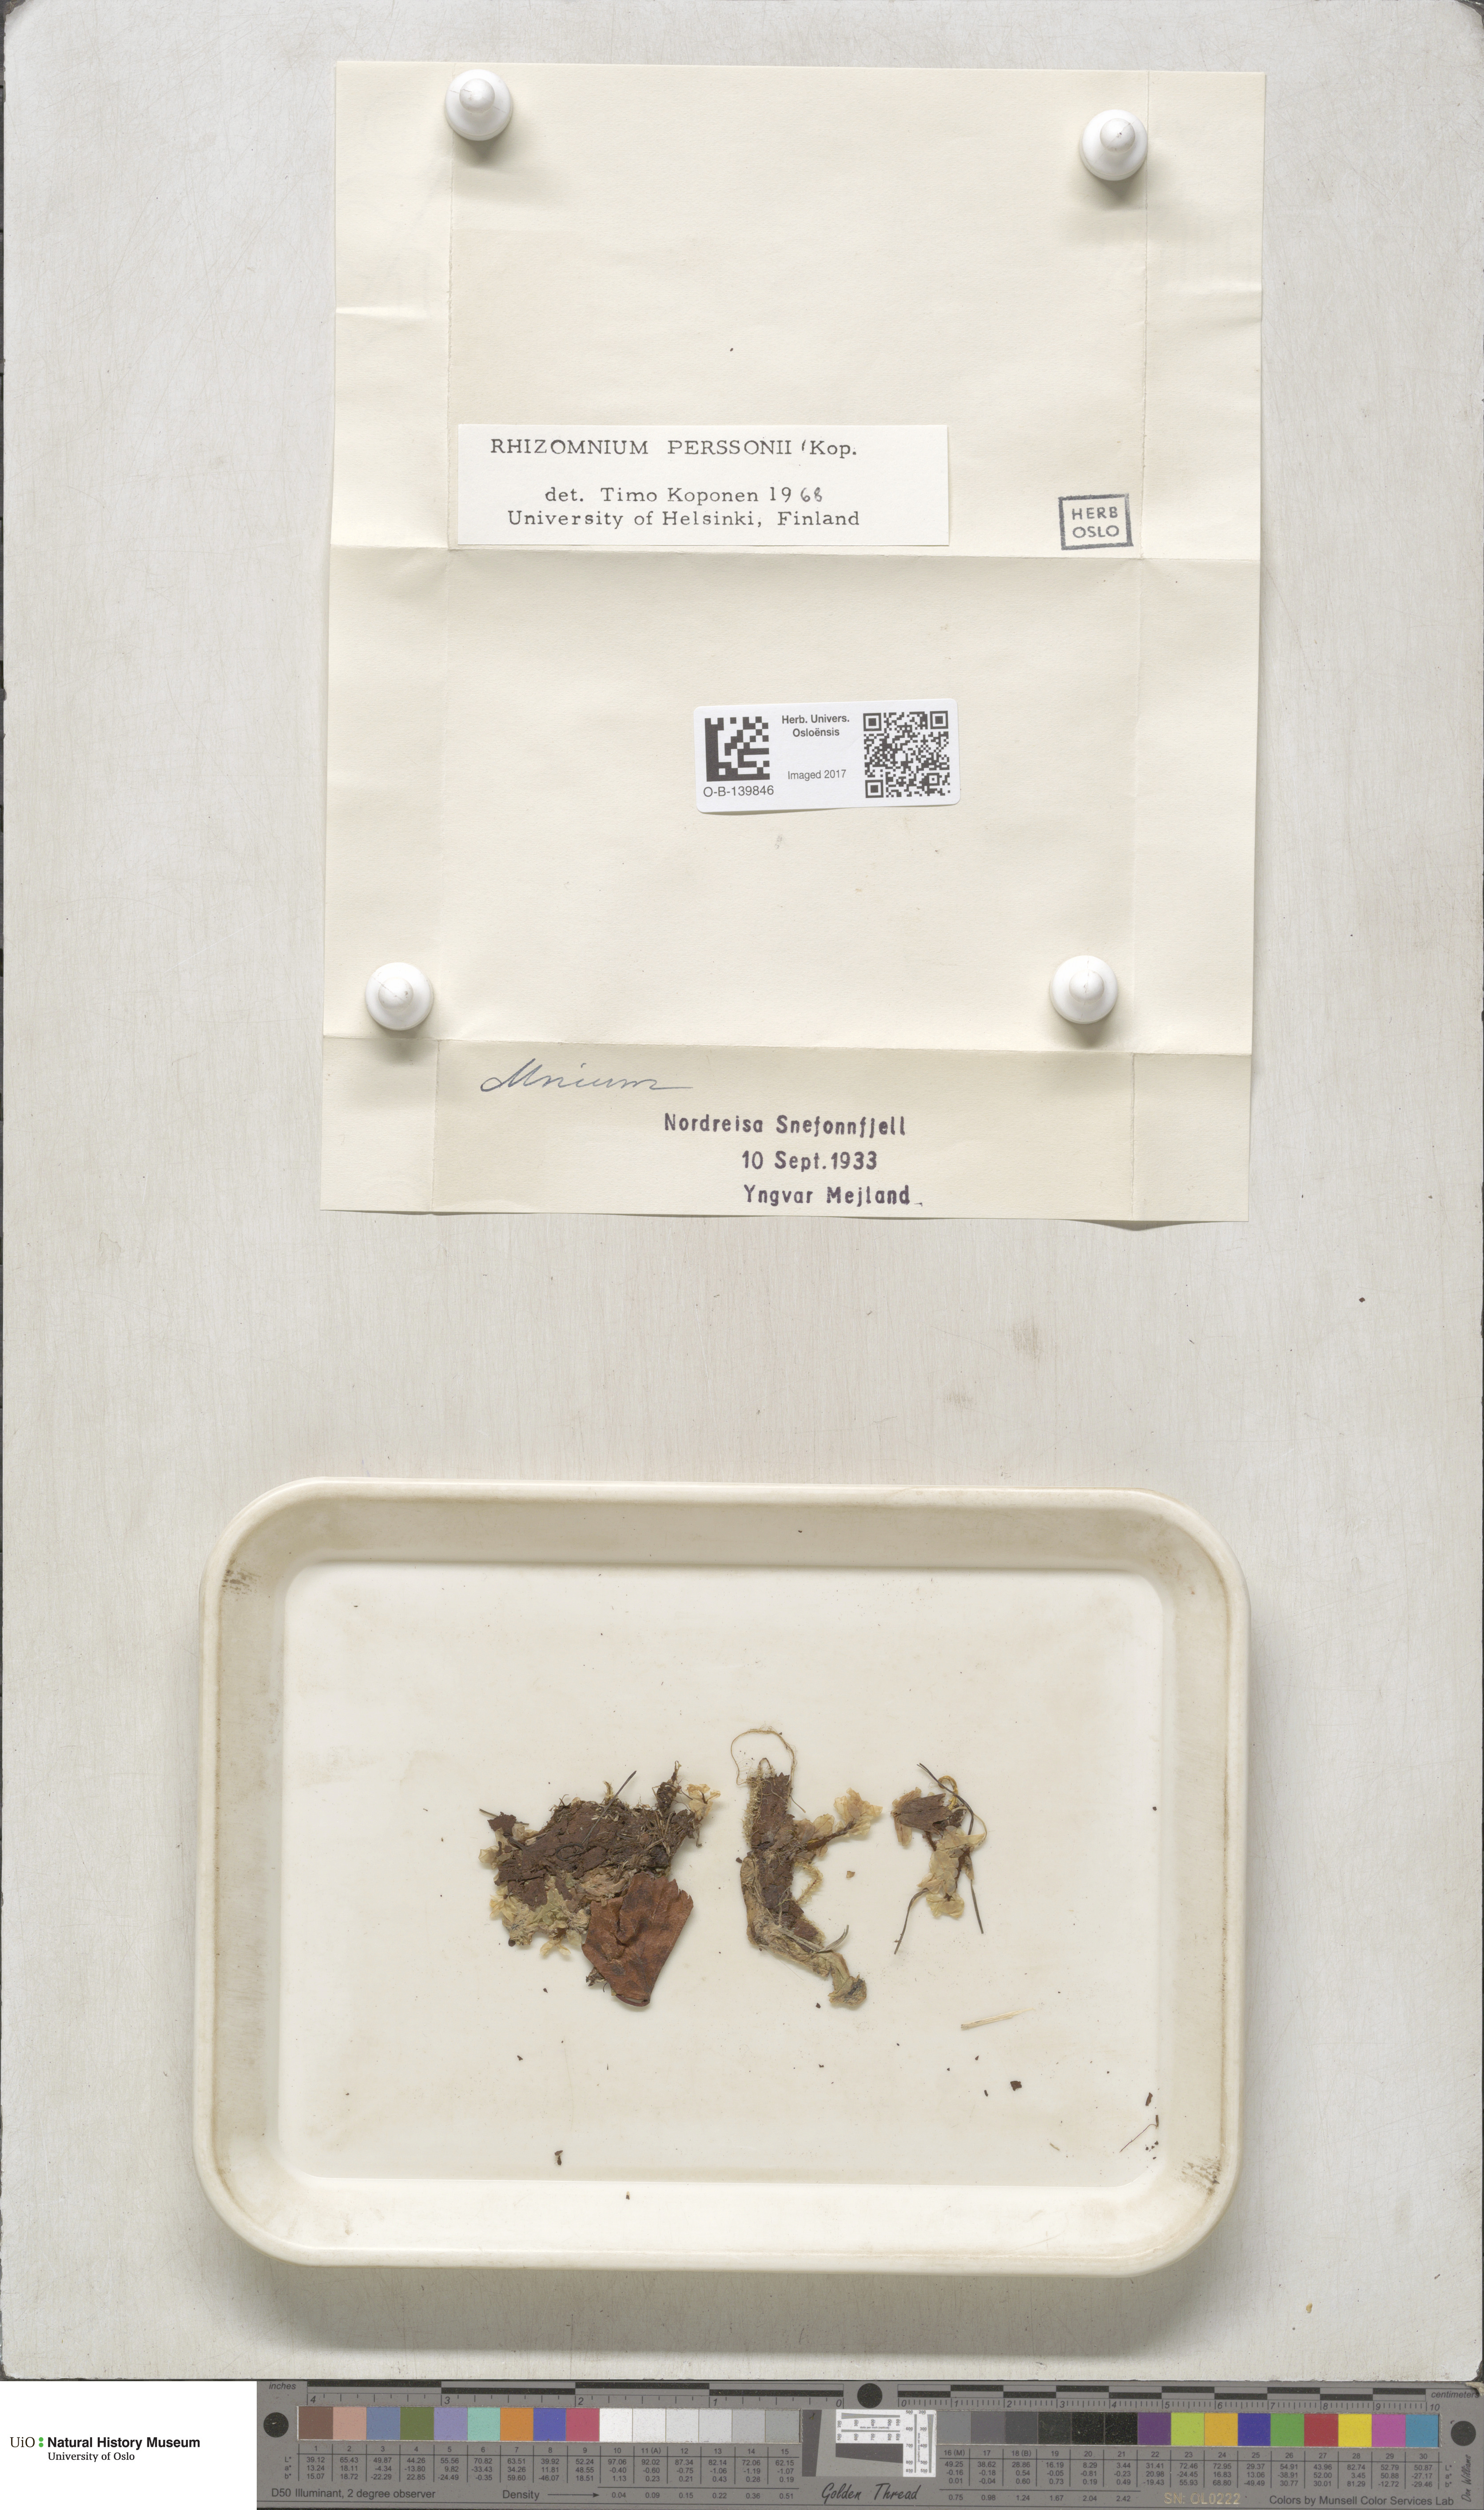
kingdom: Plantae
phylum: Bryophyta
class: Bryopsida
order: Bryales
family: Mniaceae
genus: Rhizomnium
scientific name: Rhizomnium magnifolium
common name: Large-leaved leafy moss
